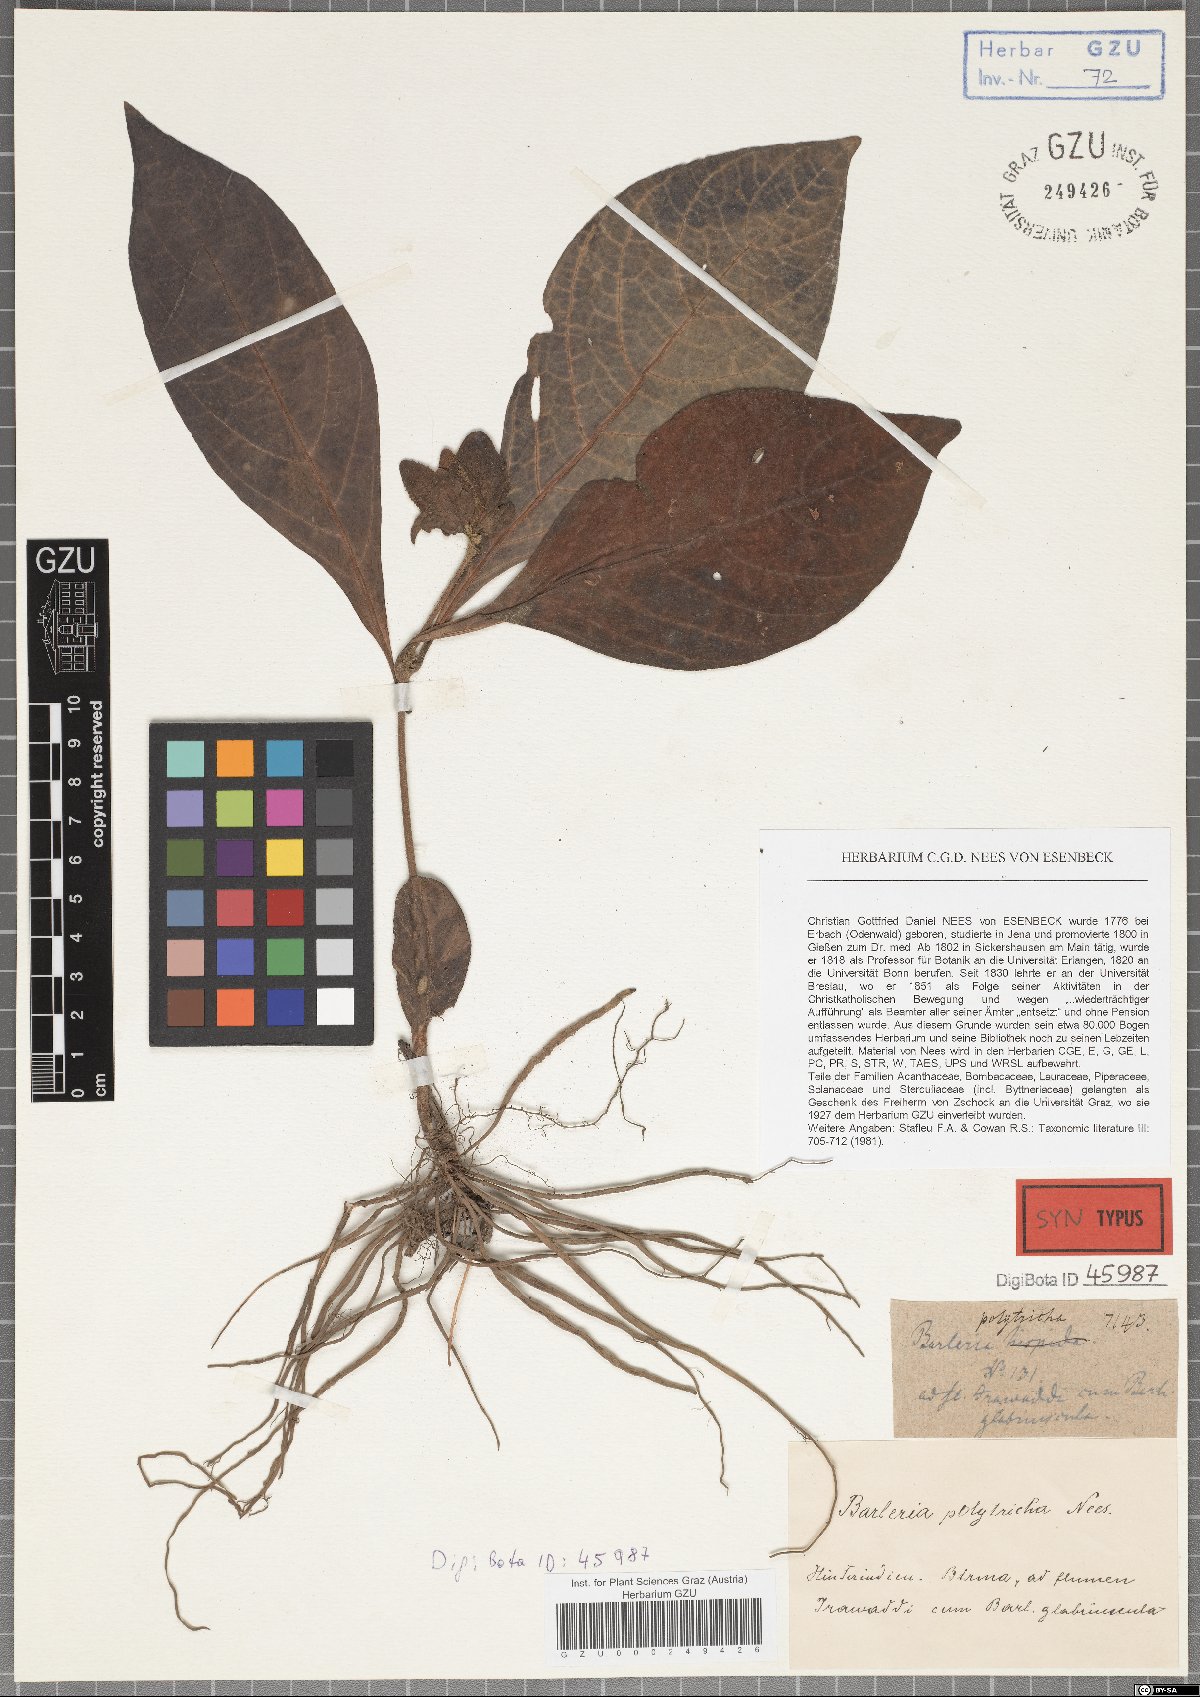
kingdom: Plantae
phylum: Tracheophyta
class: Magnoliopsida
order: Lamiales
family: Acanthaceae
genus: Crossandra
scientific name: Crossandra stenandrium
